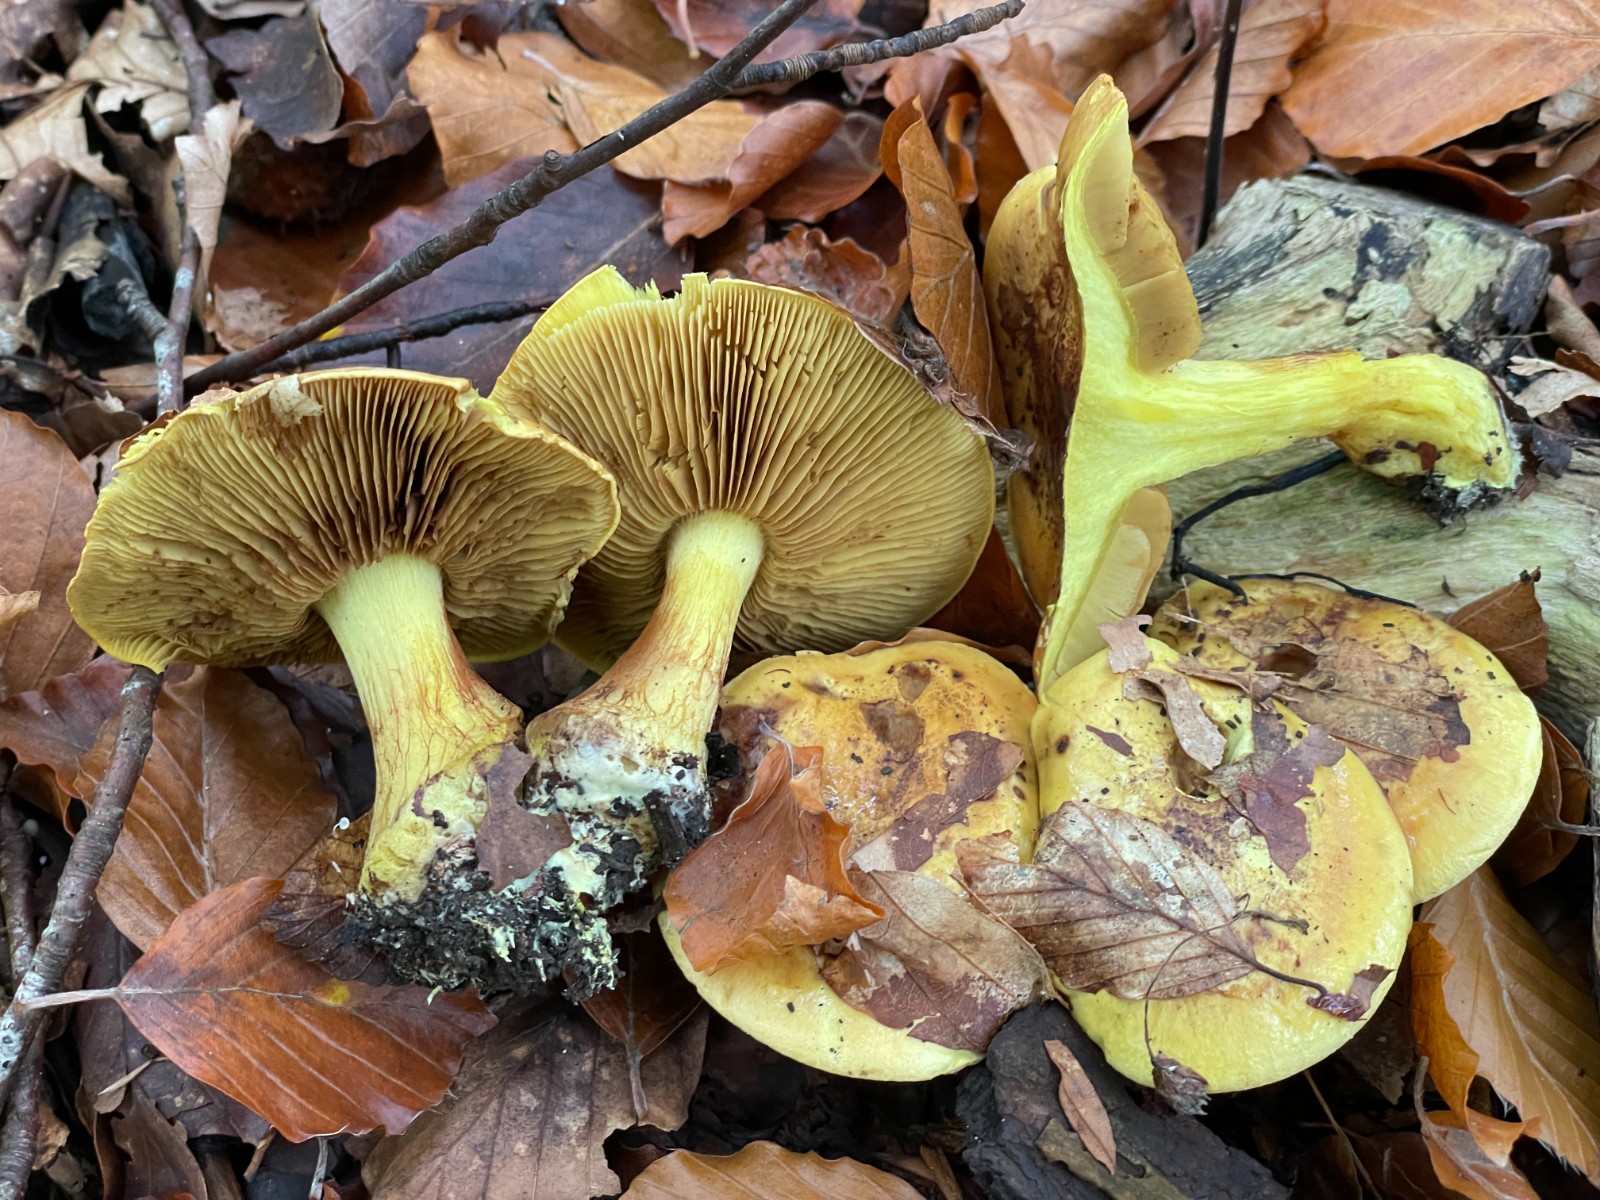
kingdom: Fungi
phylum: Basidiomycota
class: Agaricomycetes
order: Agaricales
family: Cortinariaceae
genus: Calonarius
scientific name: Calonarius splendens
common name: sirene-slørhat
